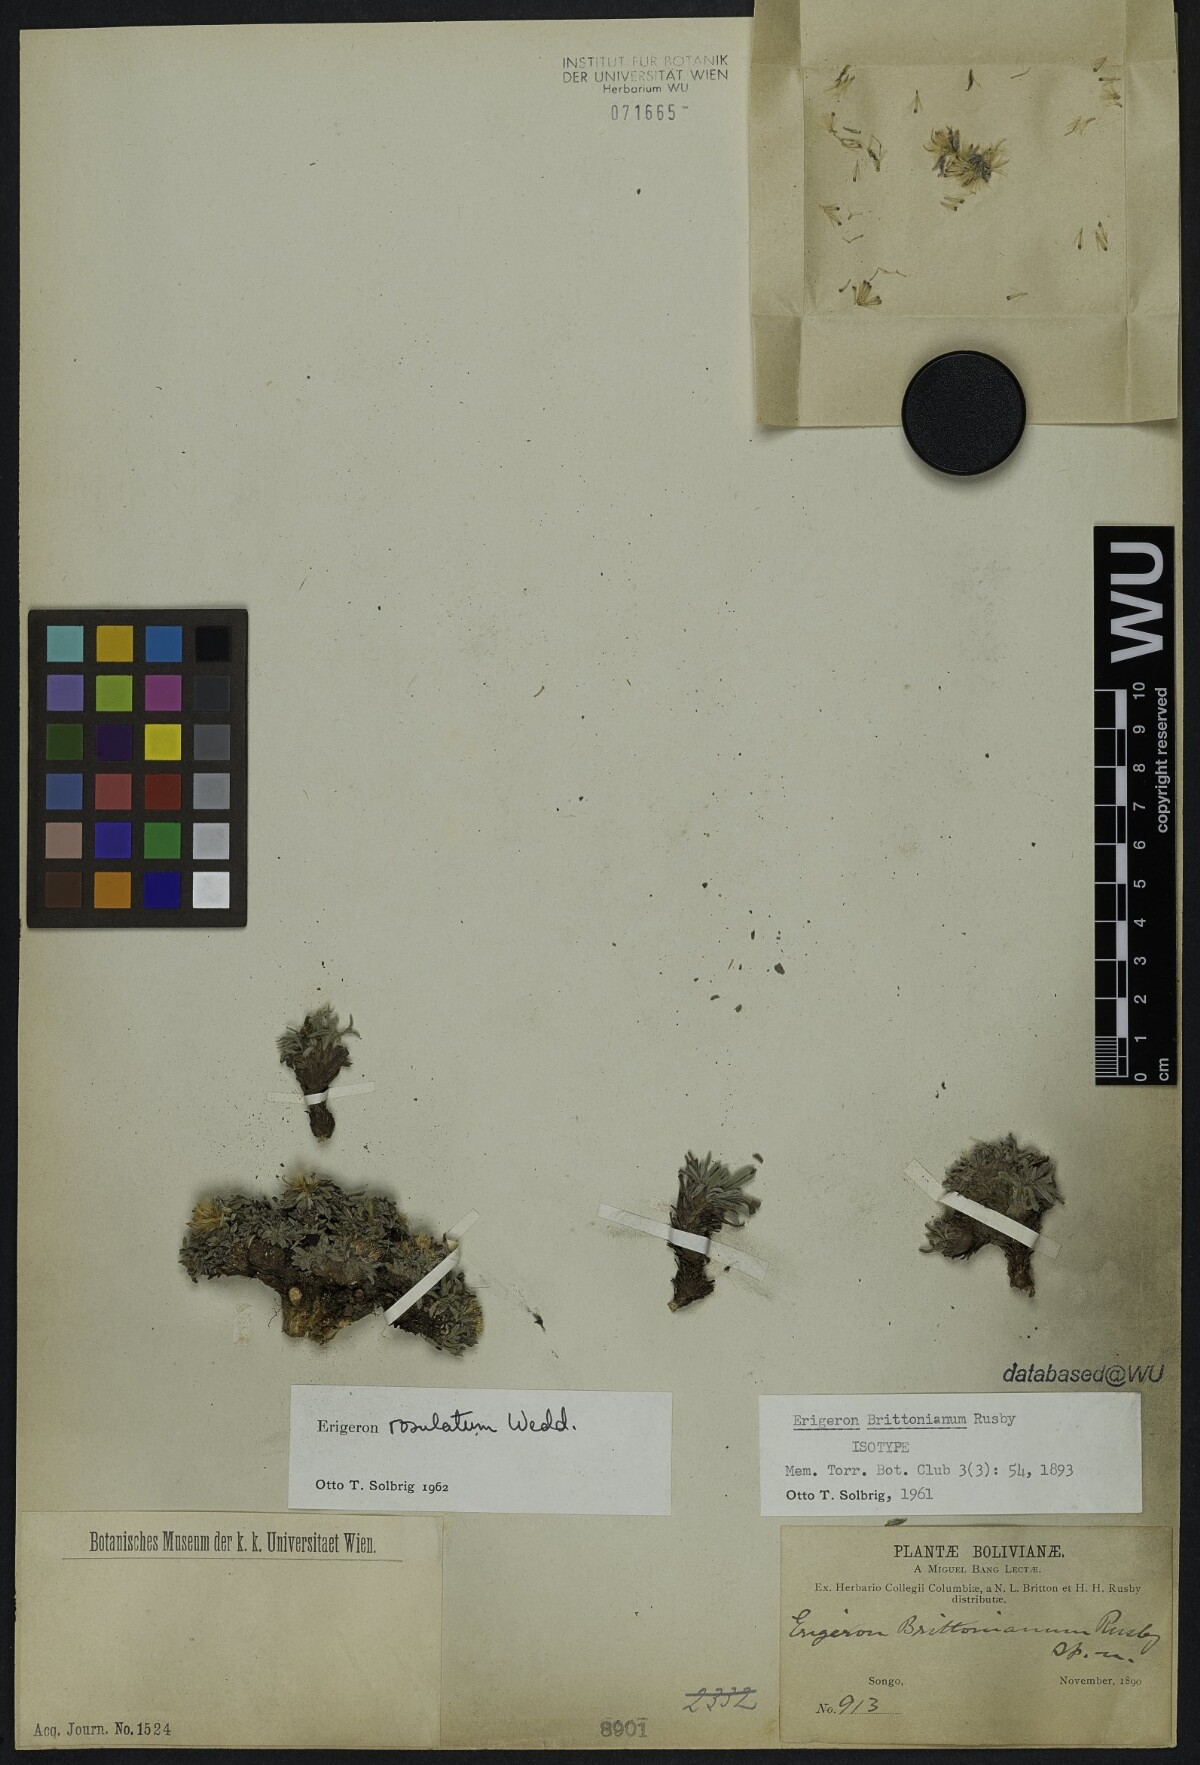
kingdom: Plantae
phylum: Tracheophyta
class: Magnoliopsida
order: Asterales
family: Asteraceae
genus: Erigeron
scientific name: Erigeron rosulatus
